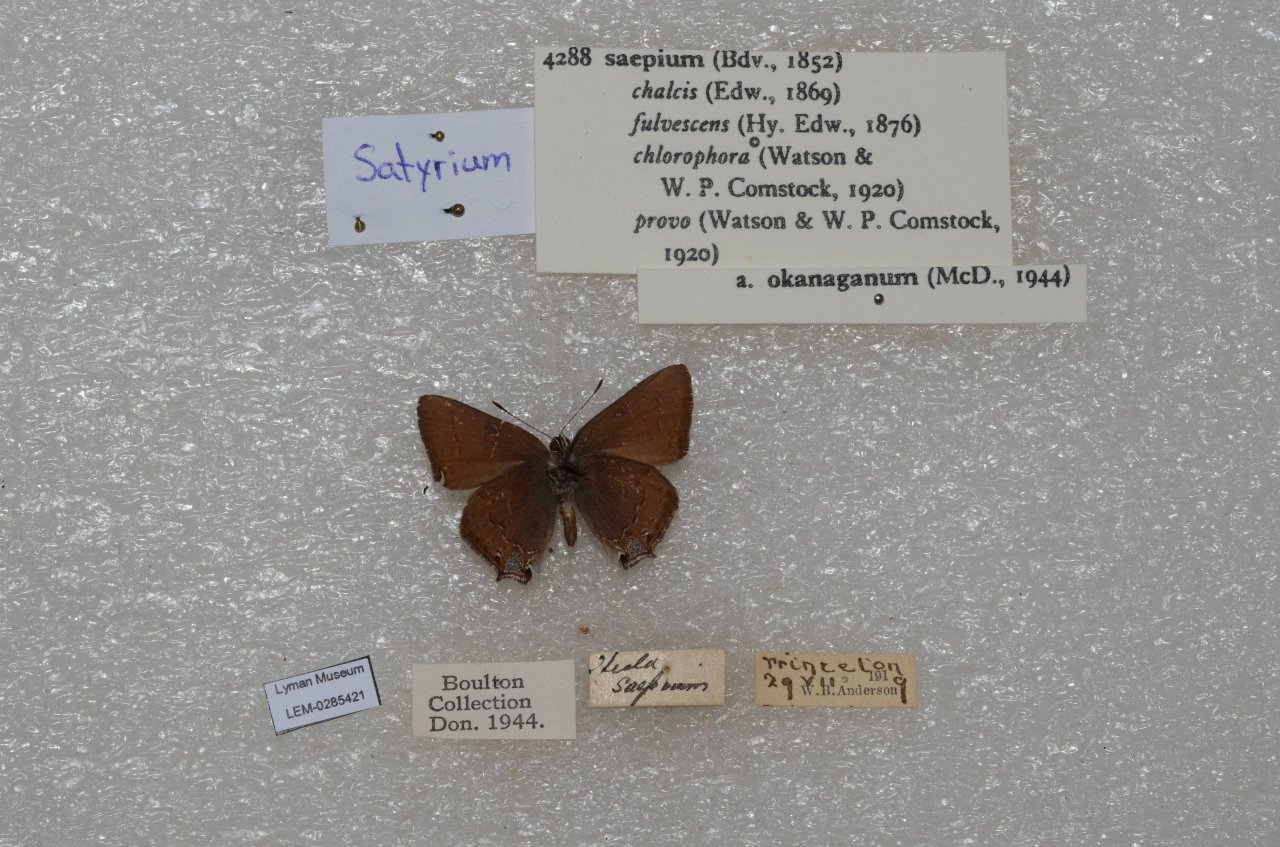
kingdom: Animalia
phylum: Arthropoda
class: Insecta
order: Lepidoptera
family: Lycaenidae
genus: Strymon
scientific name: Strymon saepium
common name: Hedgerow Hairstreak
